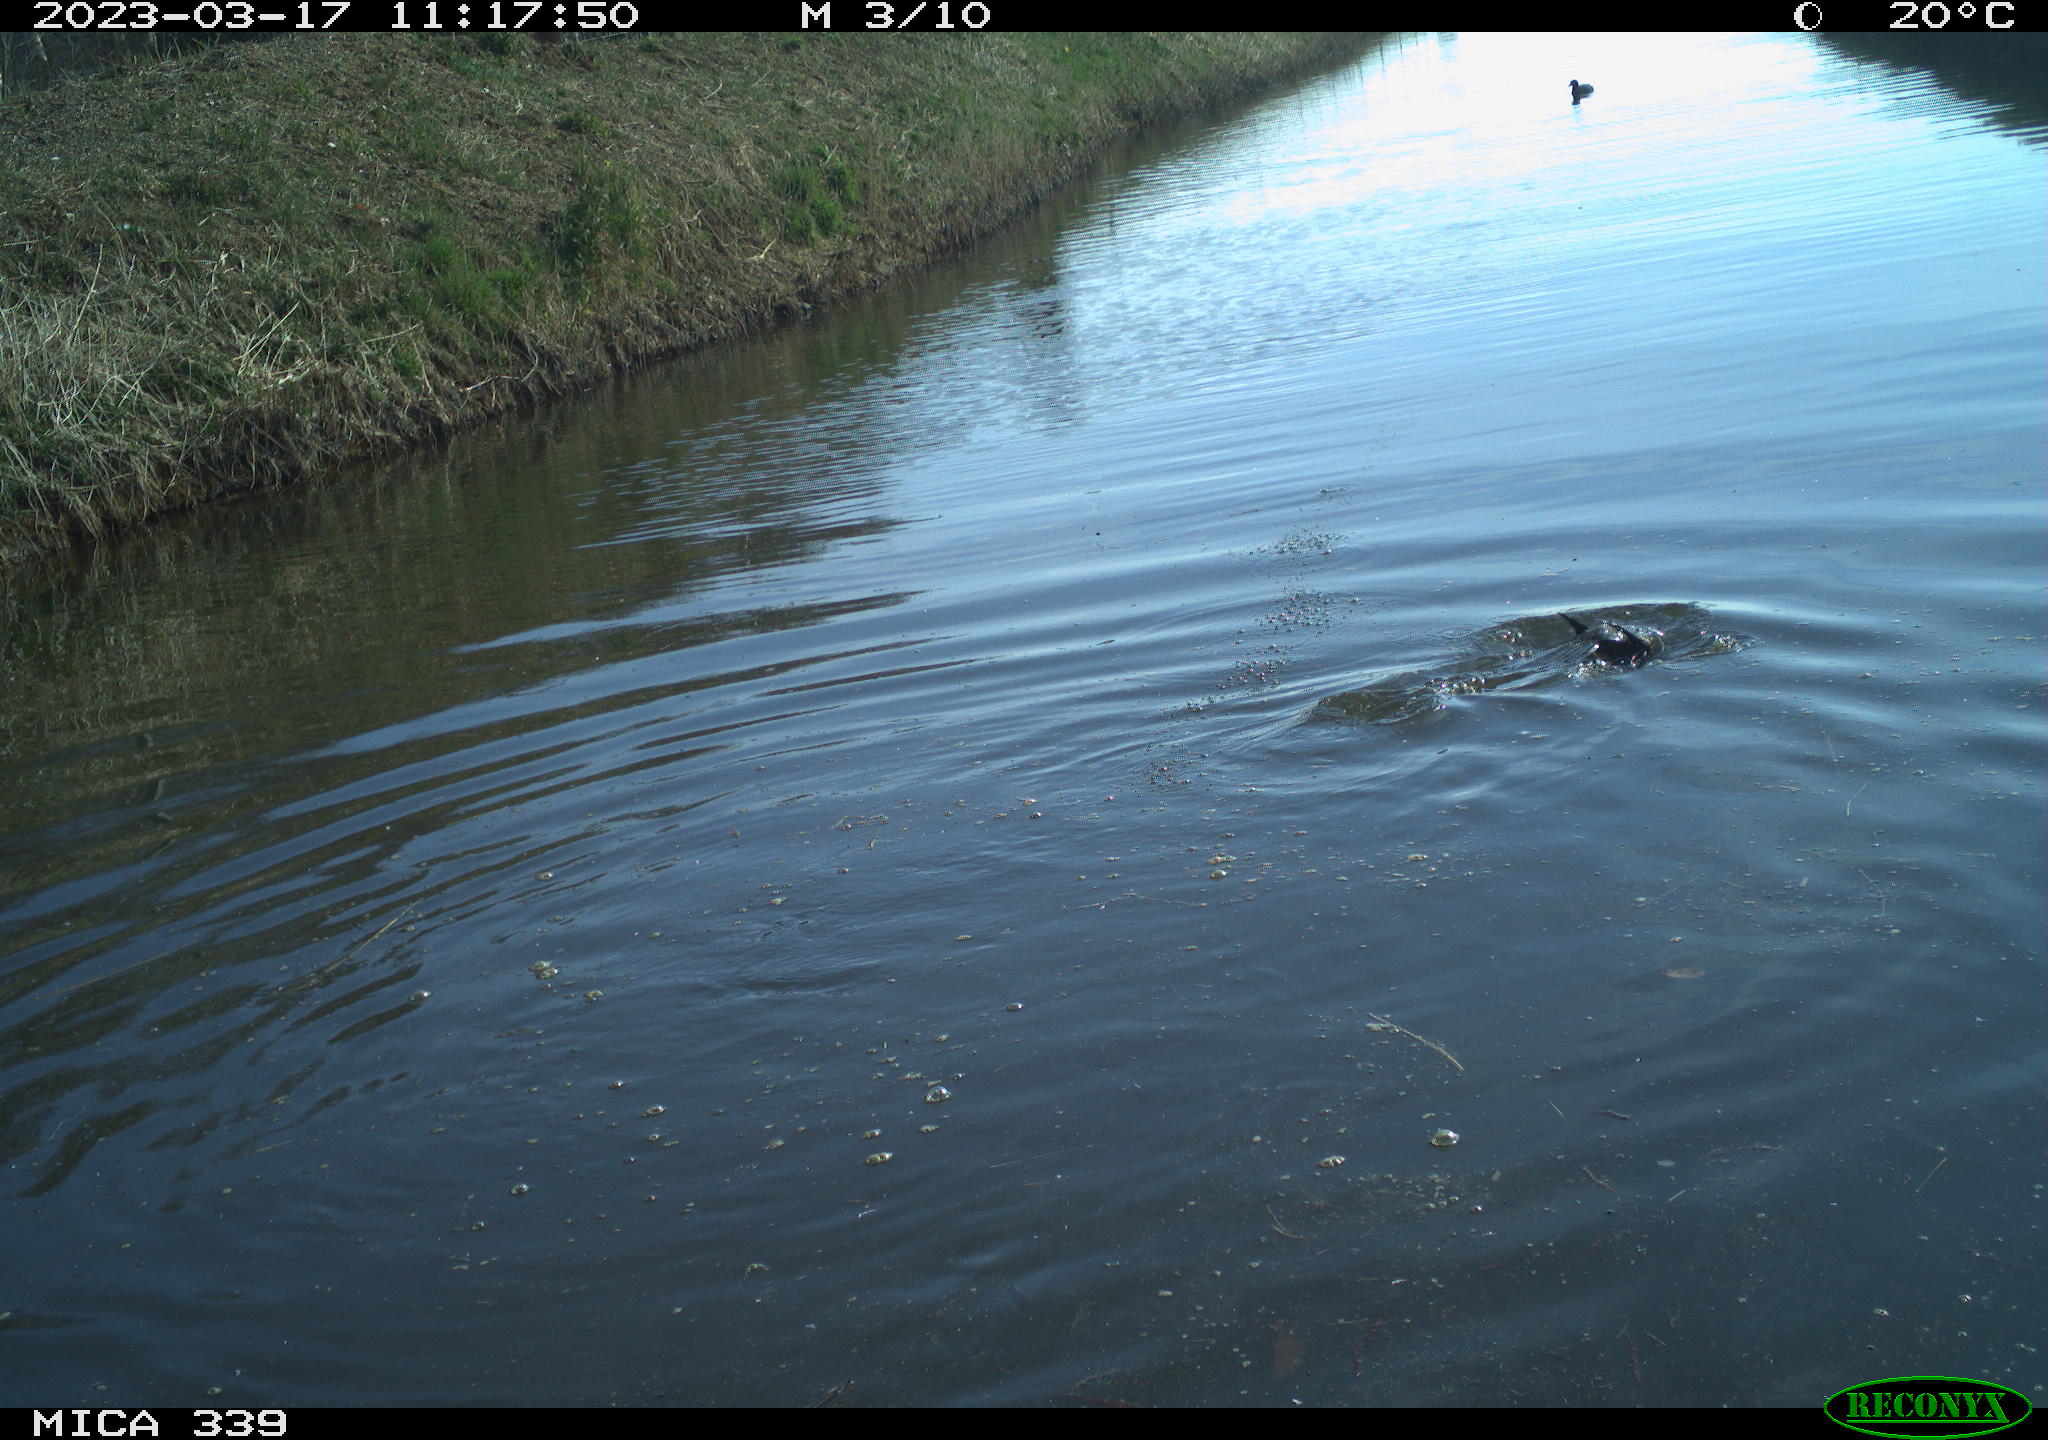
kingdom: Animalia
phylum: Chordata
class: Aves
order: Gruiformes
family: Rallidae
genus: Fulica
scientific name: Fulica atra
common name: Eurasian coot
